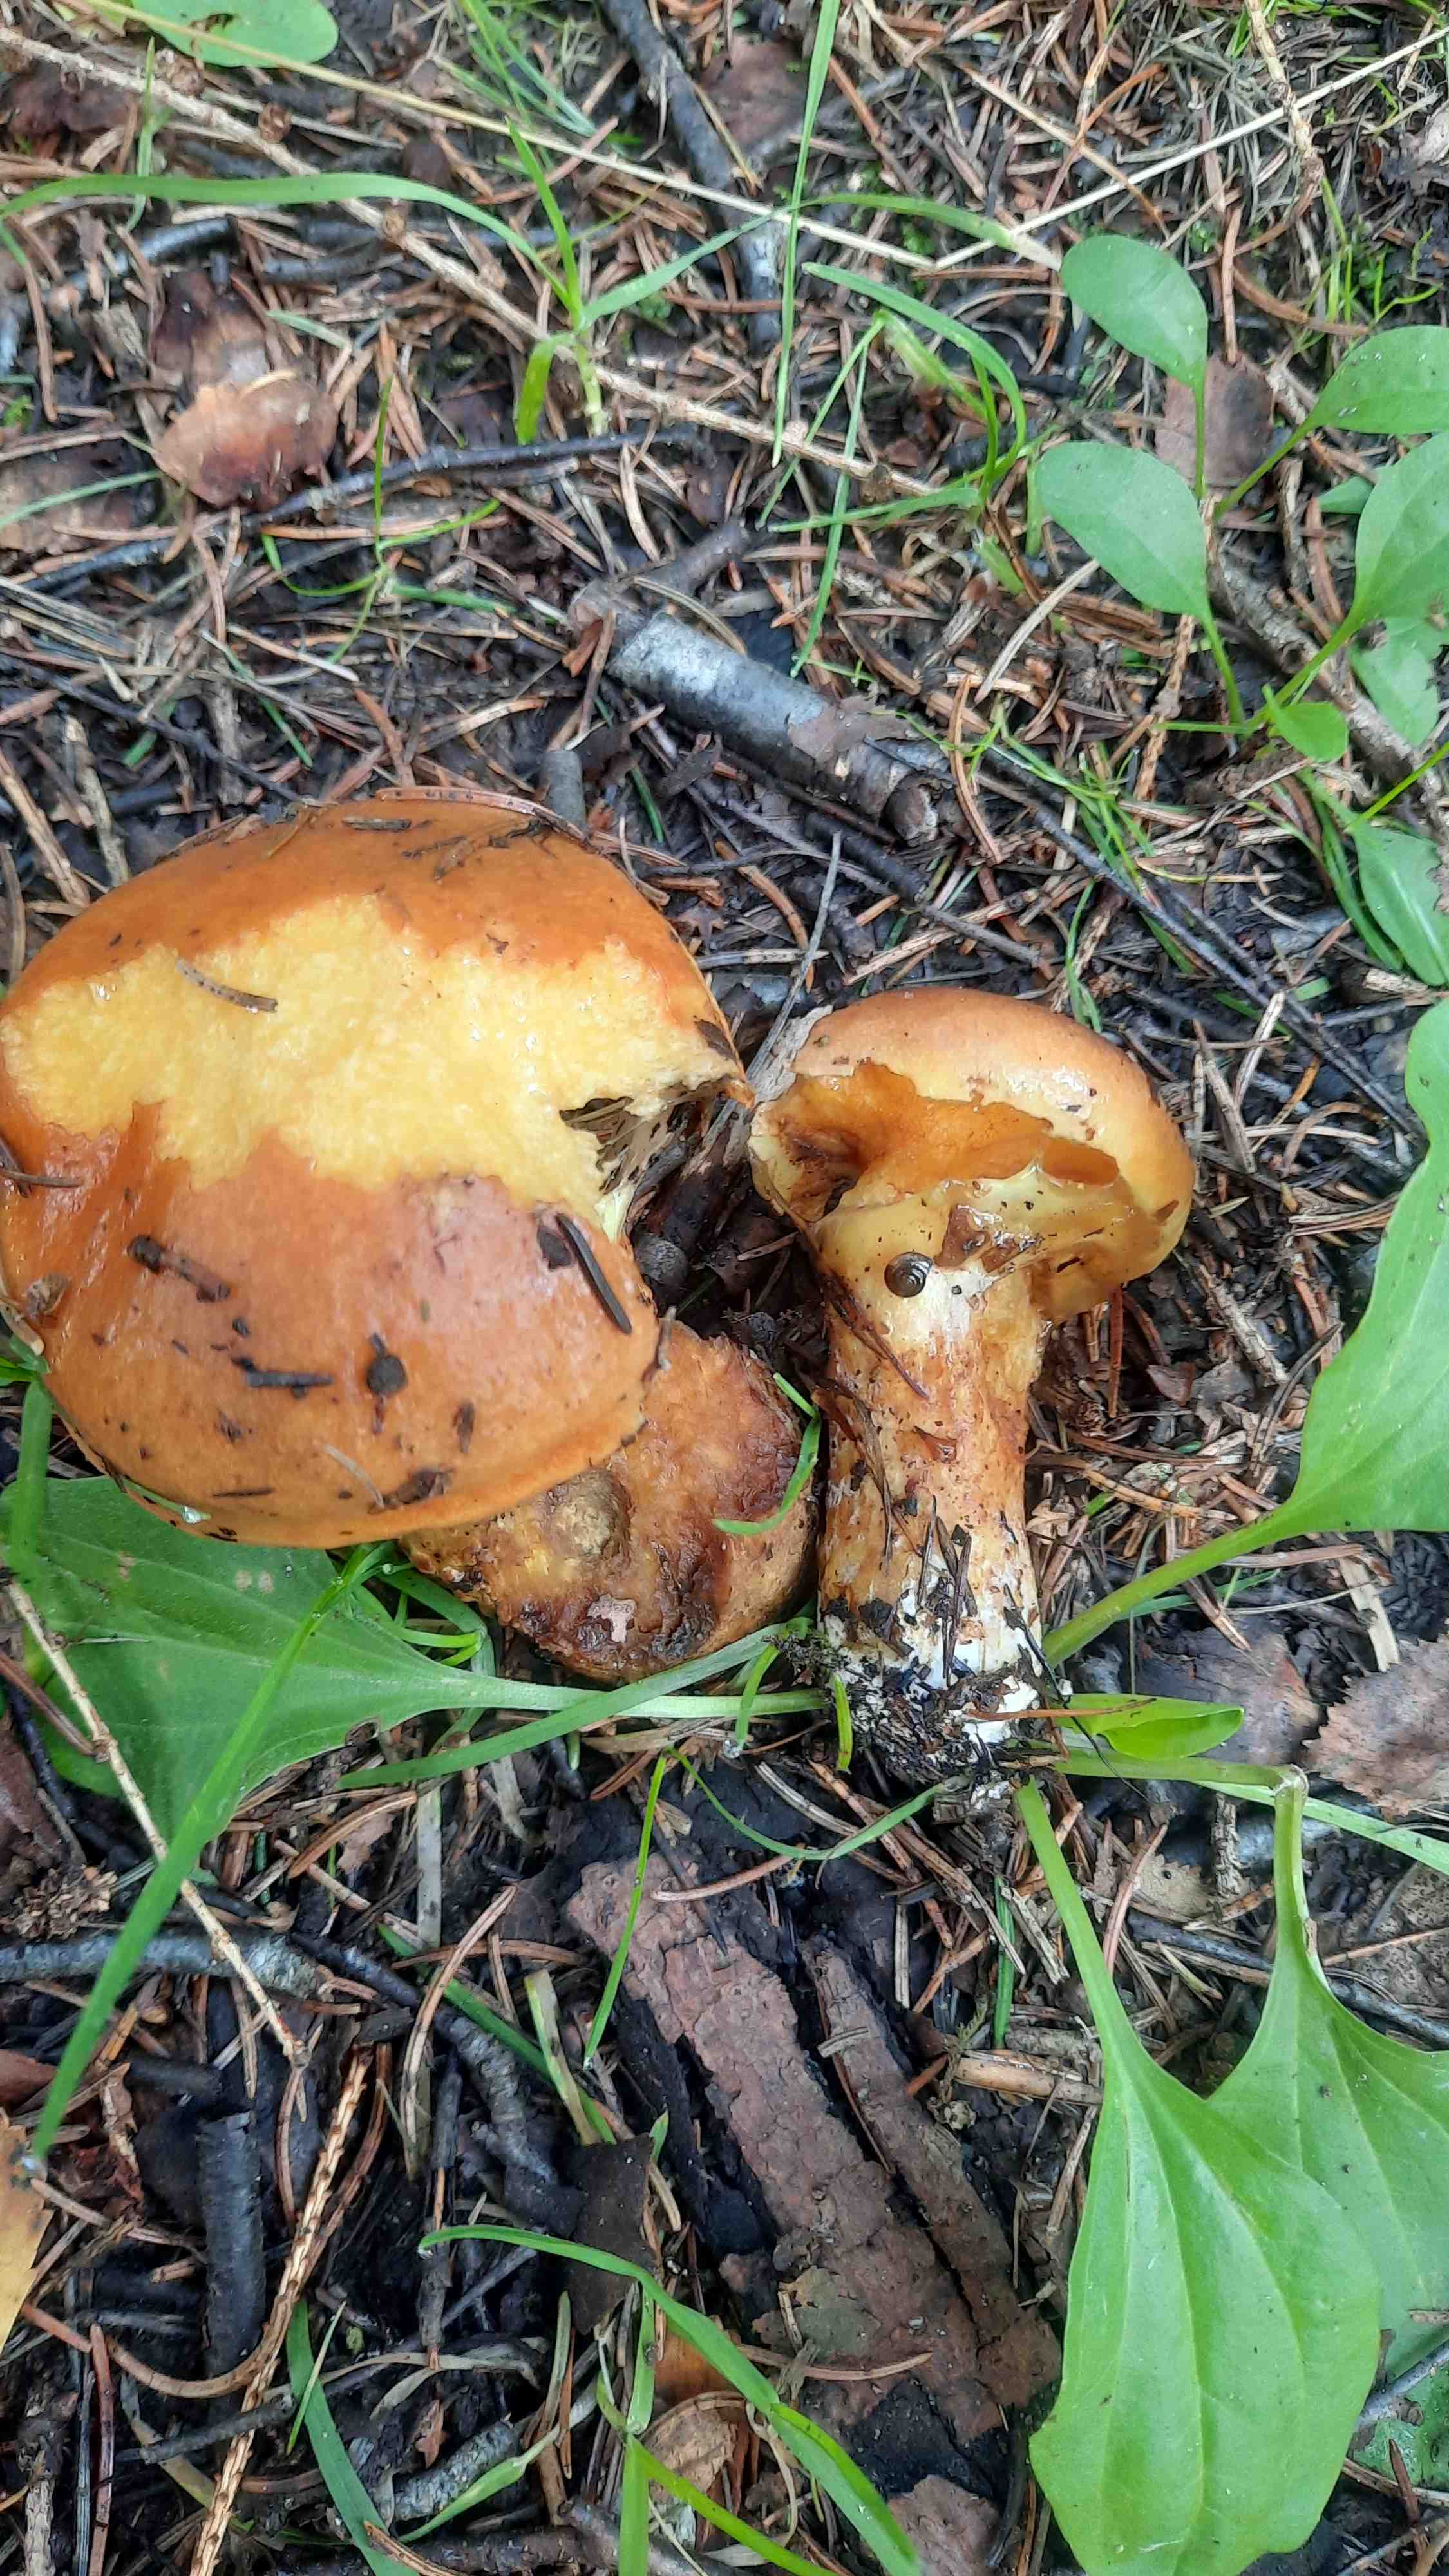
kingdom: Fungi
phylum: Basidiomycota
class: Agaricomycetes
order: Boletales
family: Suillaceae
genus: Suillus
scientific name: Suillus grevillei
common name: lærke-slimrørhat
